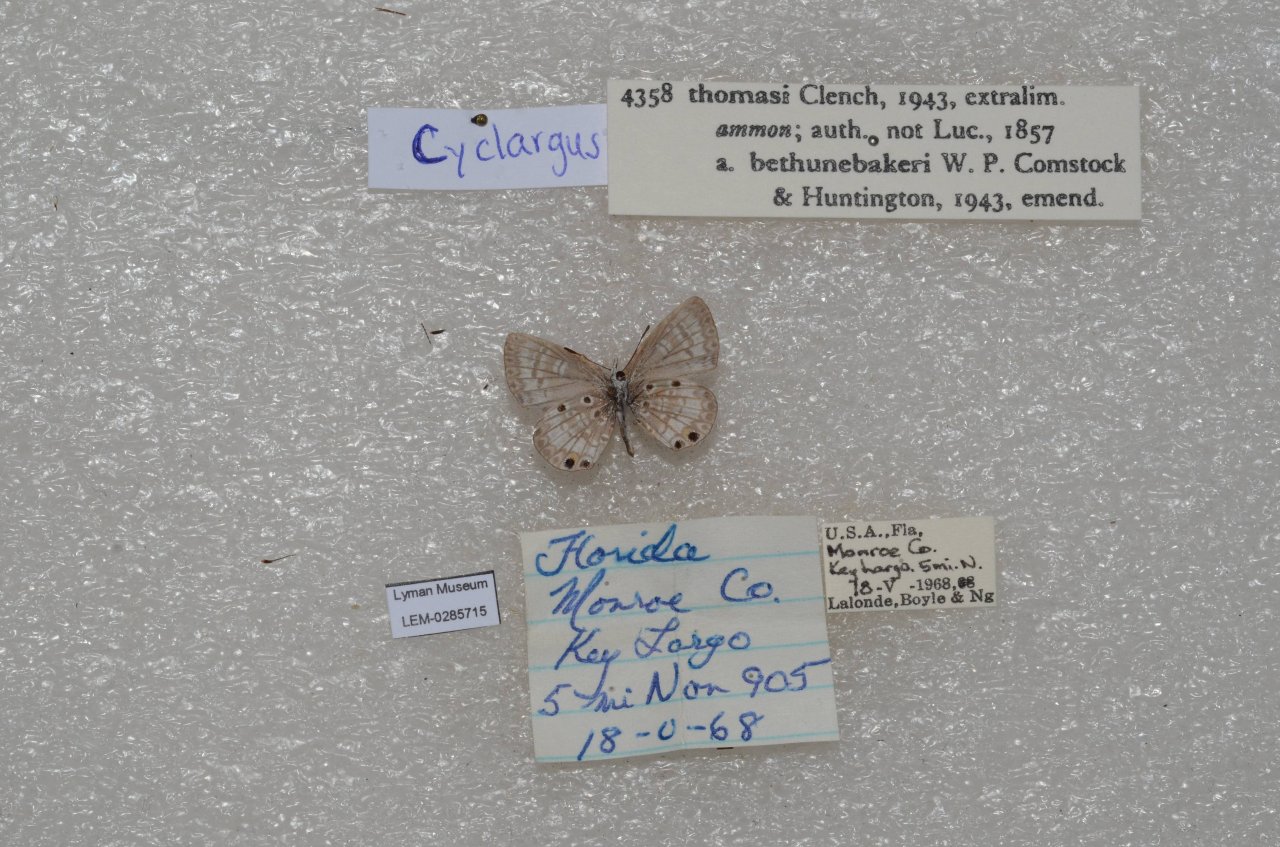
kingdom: Animalia
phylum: Arthropoda
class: Insecta
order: Lepidoptera
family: Lycaenidae
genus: Cyclargus
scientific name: Cyclargus thomasi
